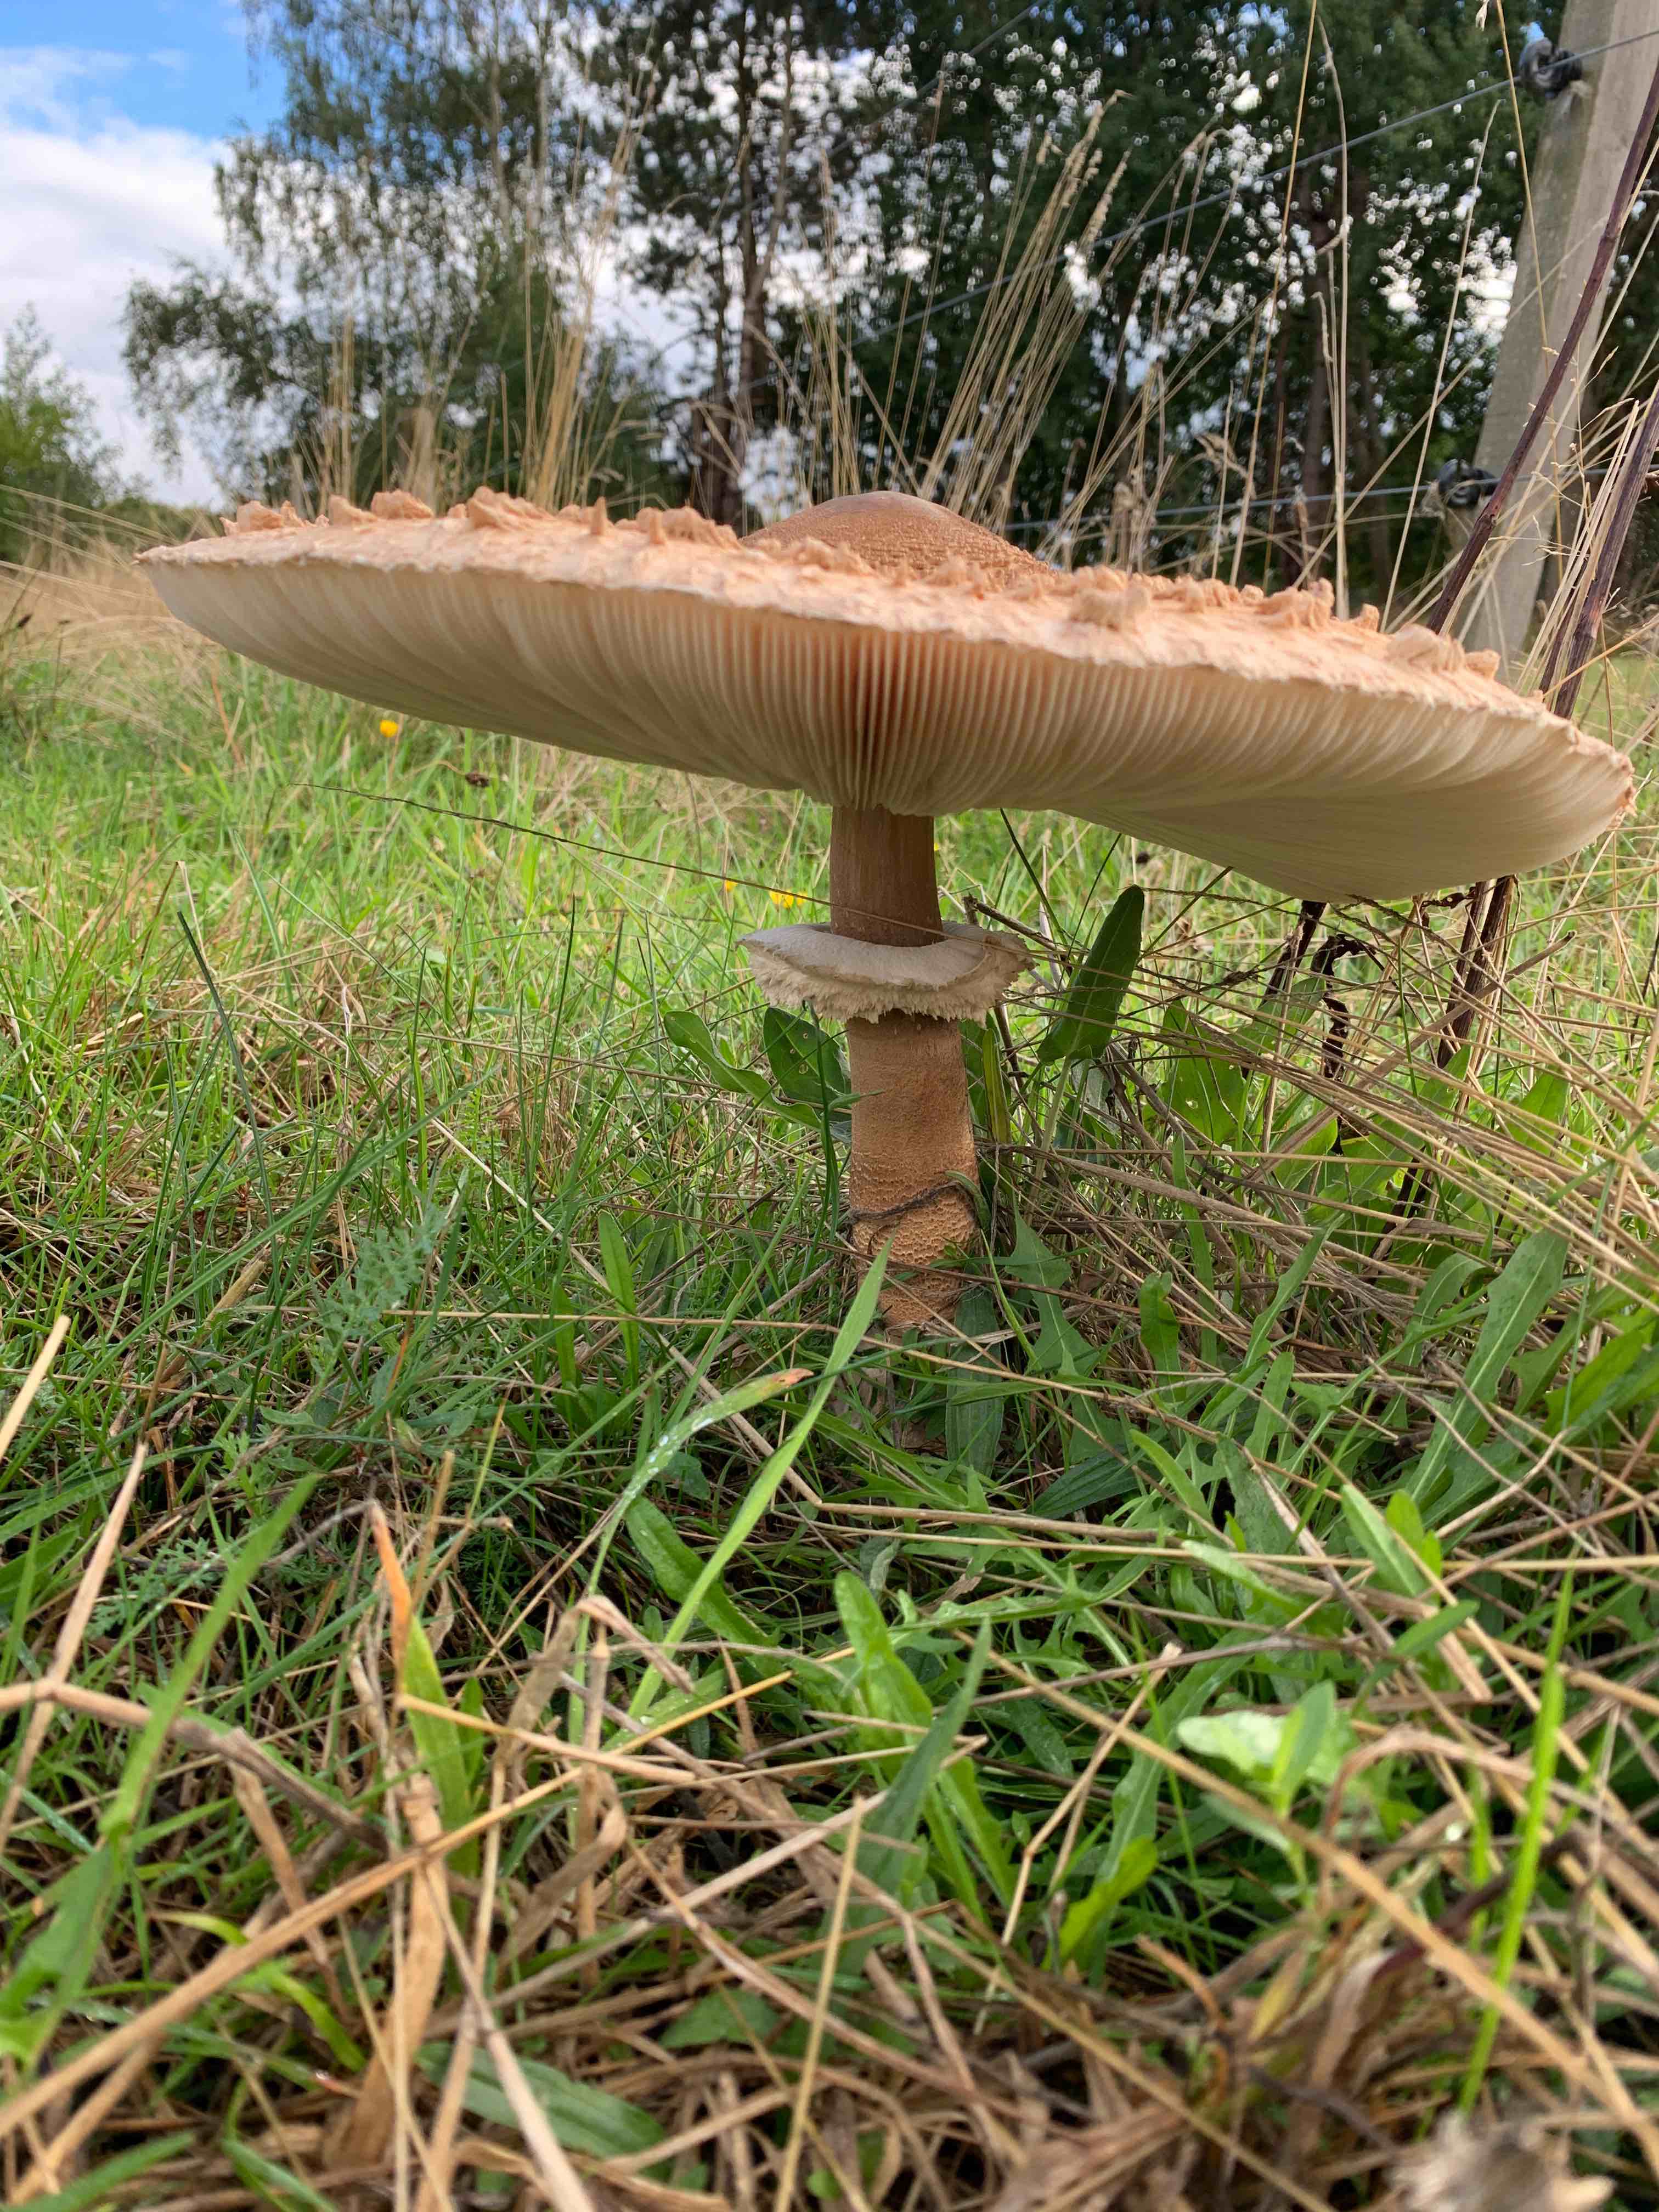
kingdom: Fungi
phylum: Basidiomycota
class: Agaricomycetes
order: Agaricales
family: Agaricaceae
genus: Macrolepiota
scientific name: Macrolepiota procera
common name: stor kæmpeparasolhat
